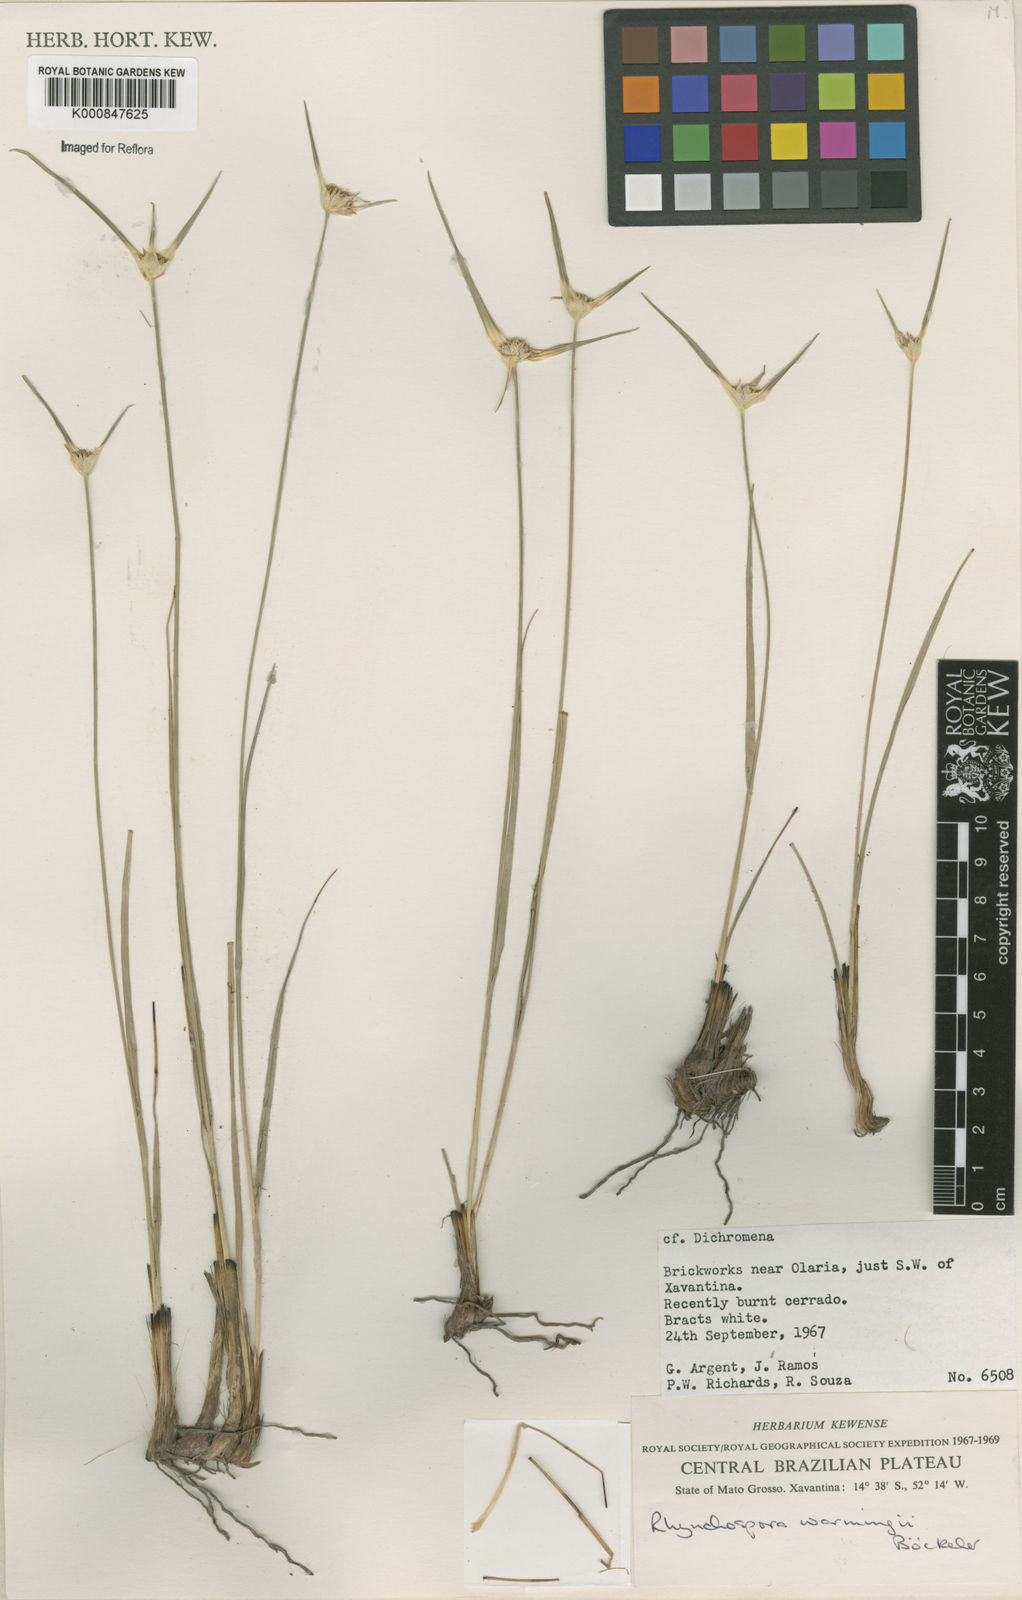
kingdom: Plantae
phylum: Tracheophyta
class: Liliopsida
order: Poales
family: Cyperaceae
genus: Rhynchospora
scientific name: Rhynchospora warmingii
